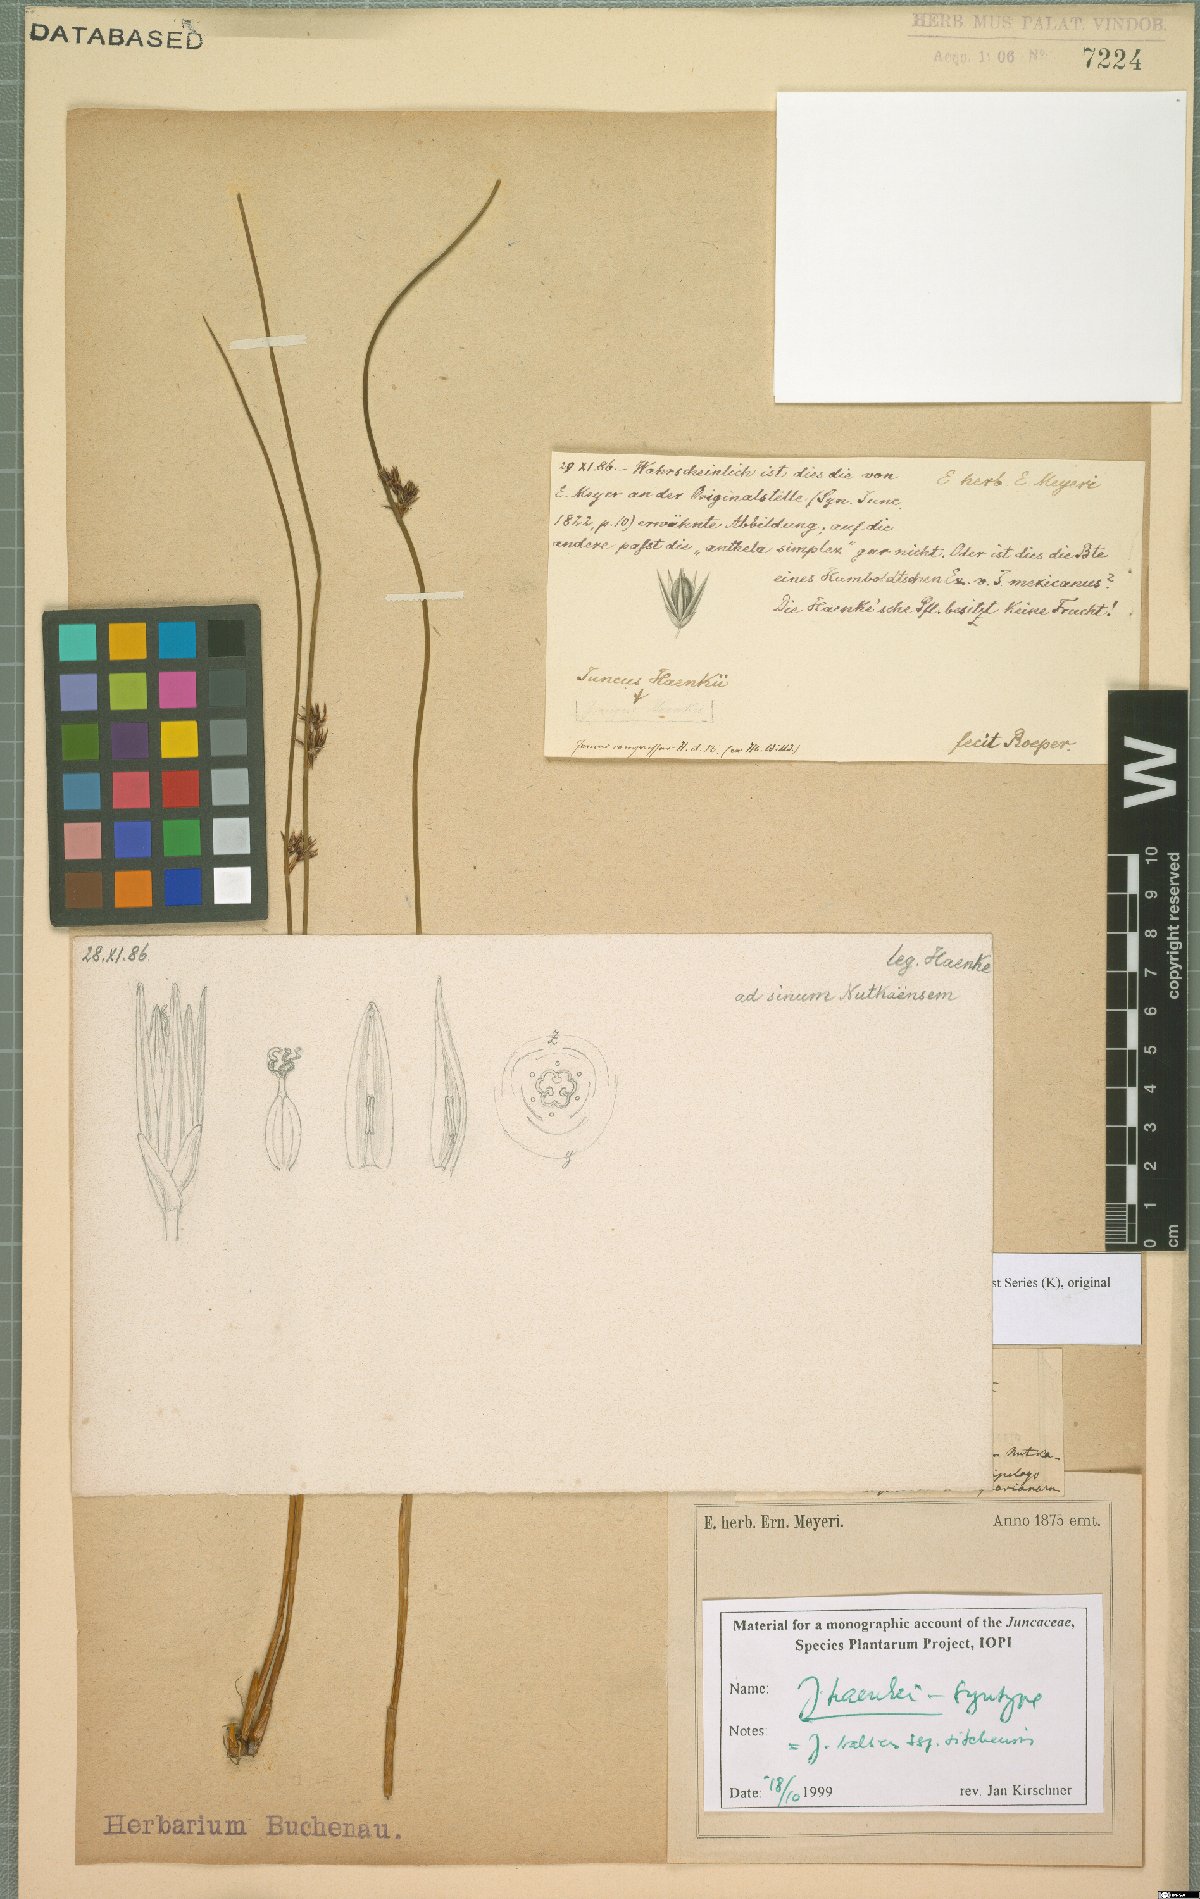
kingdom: Plantae
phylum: Tracheophyta
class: Liliopsida
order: Poales
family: Juncaceae
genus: Juncus
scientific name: Juncus haenkei
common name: Haenke's rush
